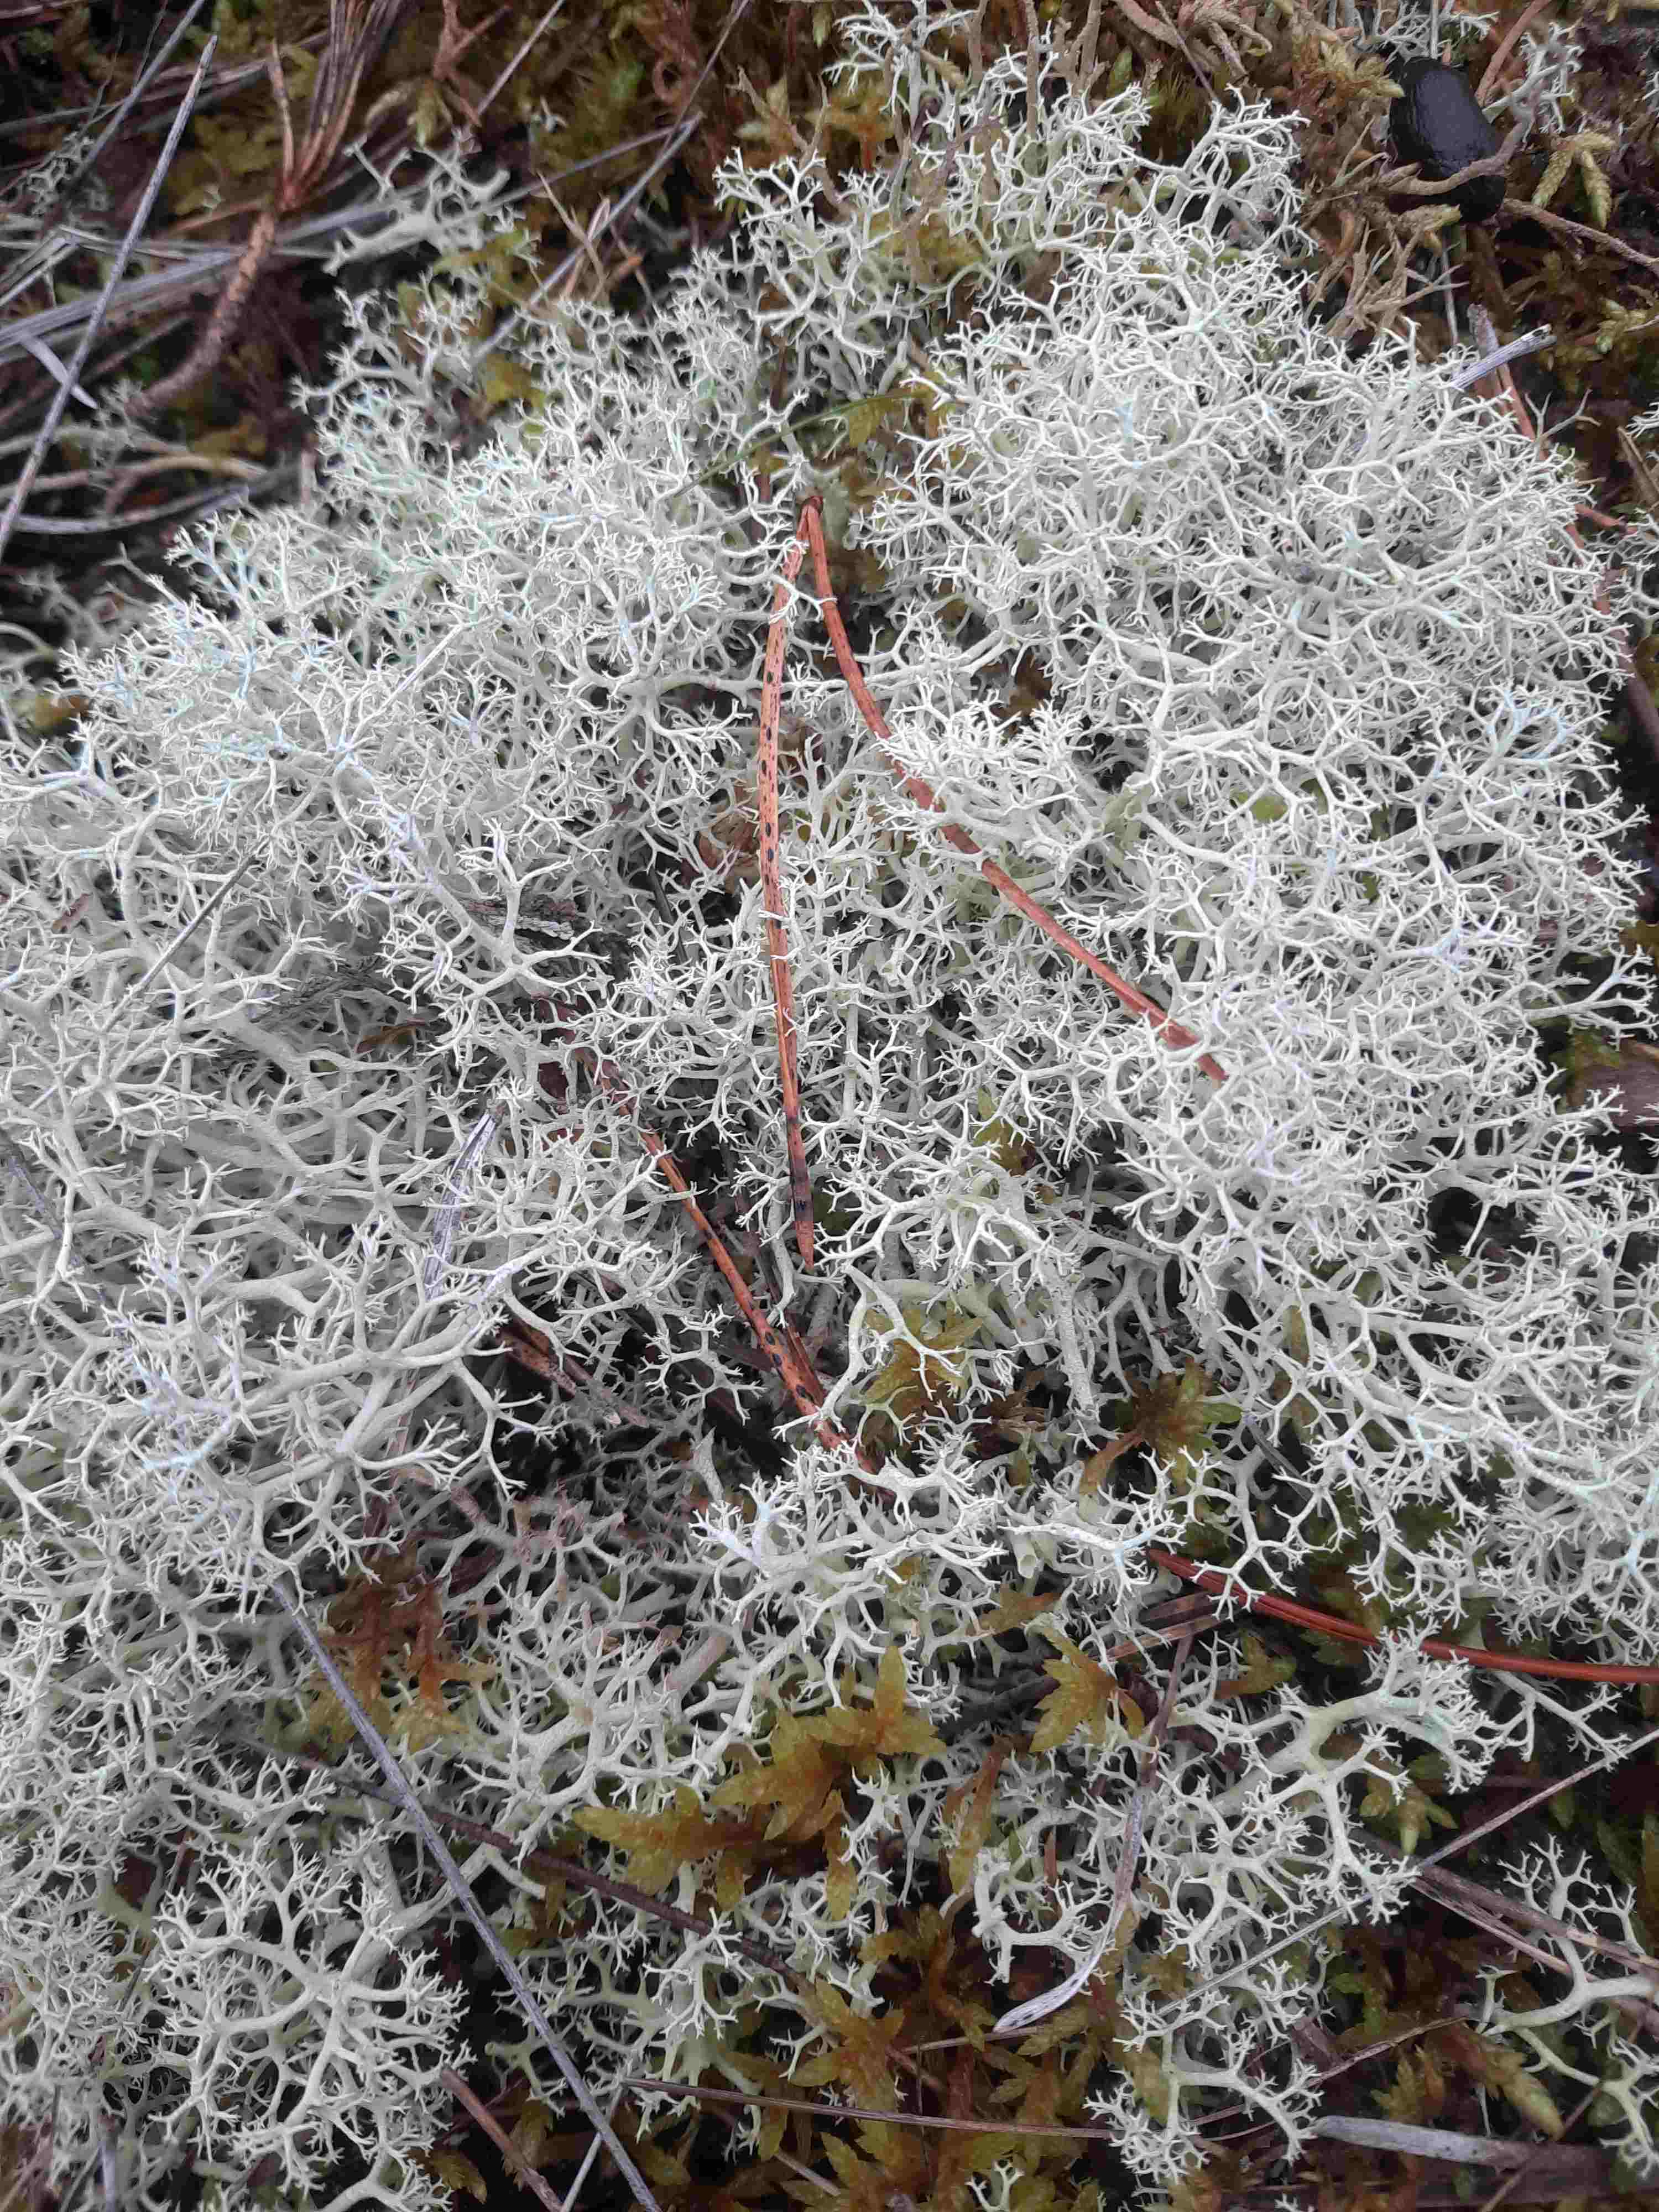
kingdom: Fungi
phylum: Ascomycota
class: Lecanoromycetes
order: Lecanorales
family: Cladoniaceae
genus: Cladonia
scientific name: Cladonia portentosa
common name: hede-rensdyrlav
